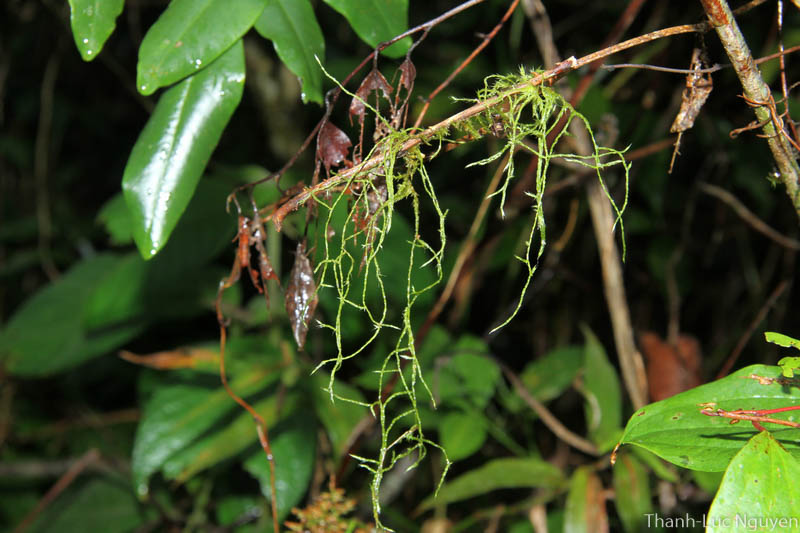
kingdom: Plantae
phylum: Bryophyta
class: Bryopsida
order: Hypnales
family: Meteoriaceae
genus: Neodicladiella
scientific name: Neodicladiella flagellifera
